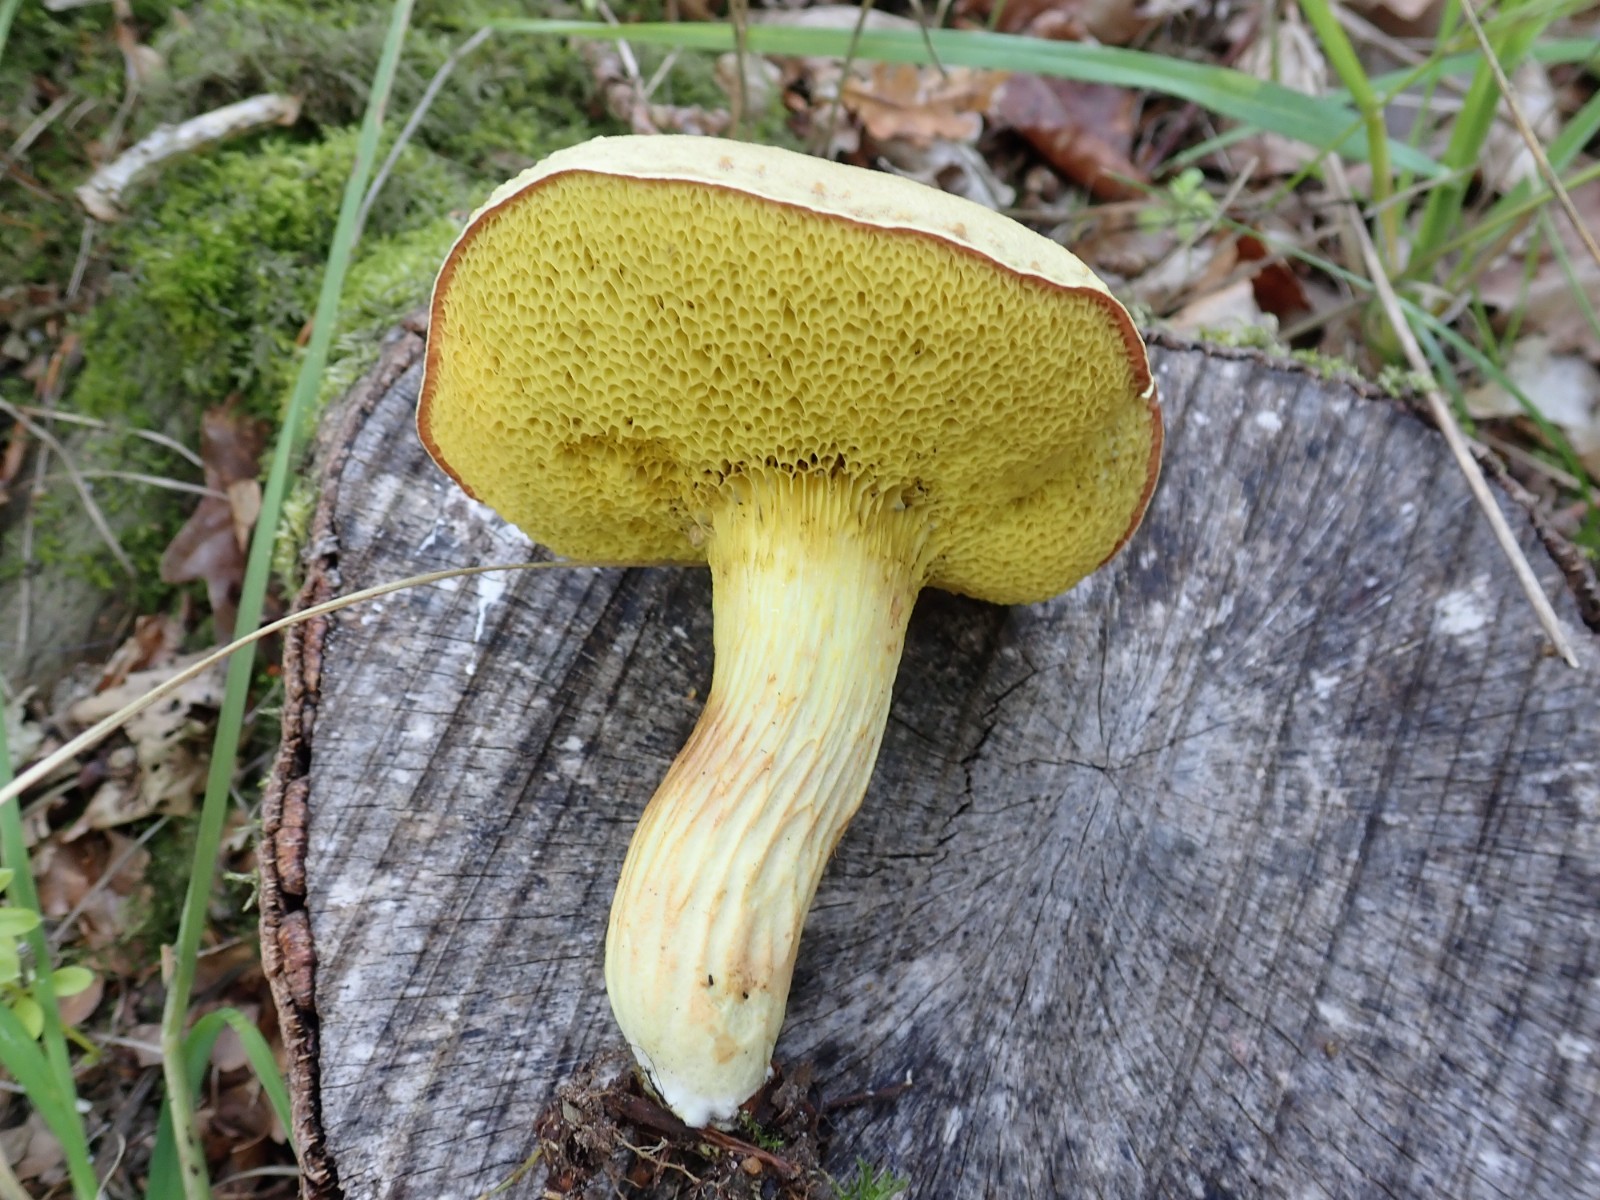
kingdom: Fungi
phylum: Basidiomycota
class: Agaricomycetes
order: Boletales
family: Boletaceae
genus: Xerocomus
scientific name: Xerocomus
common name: filtrørhat
